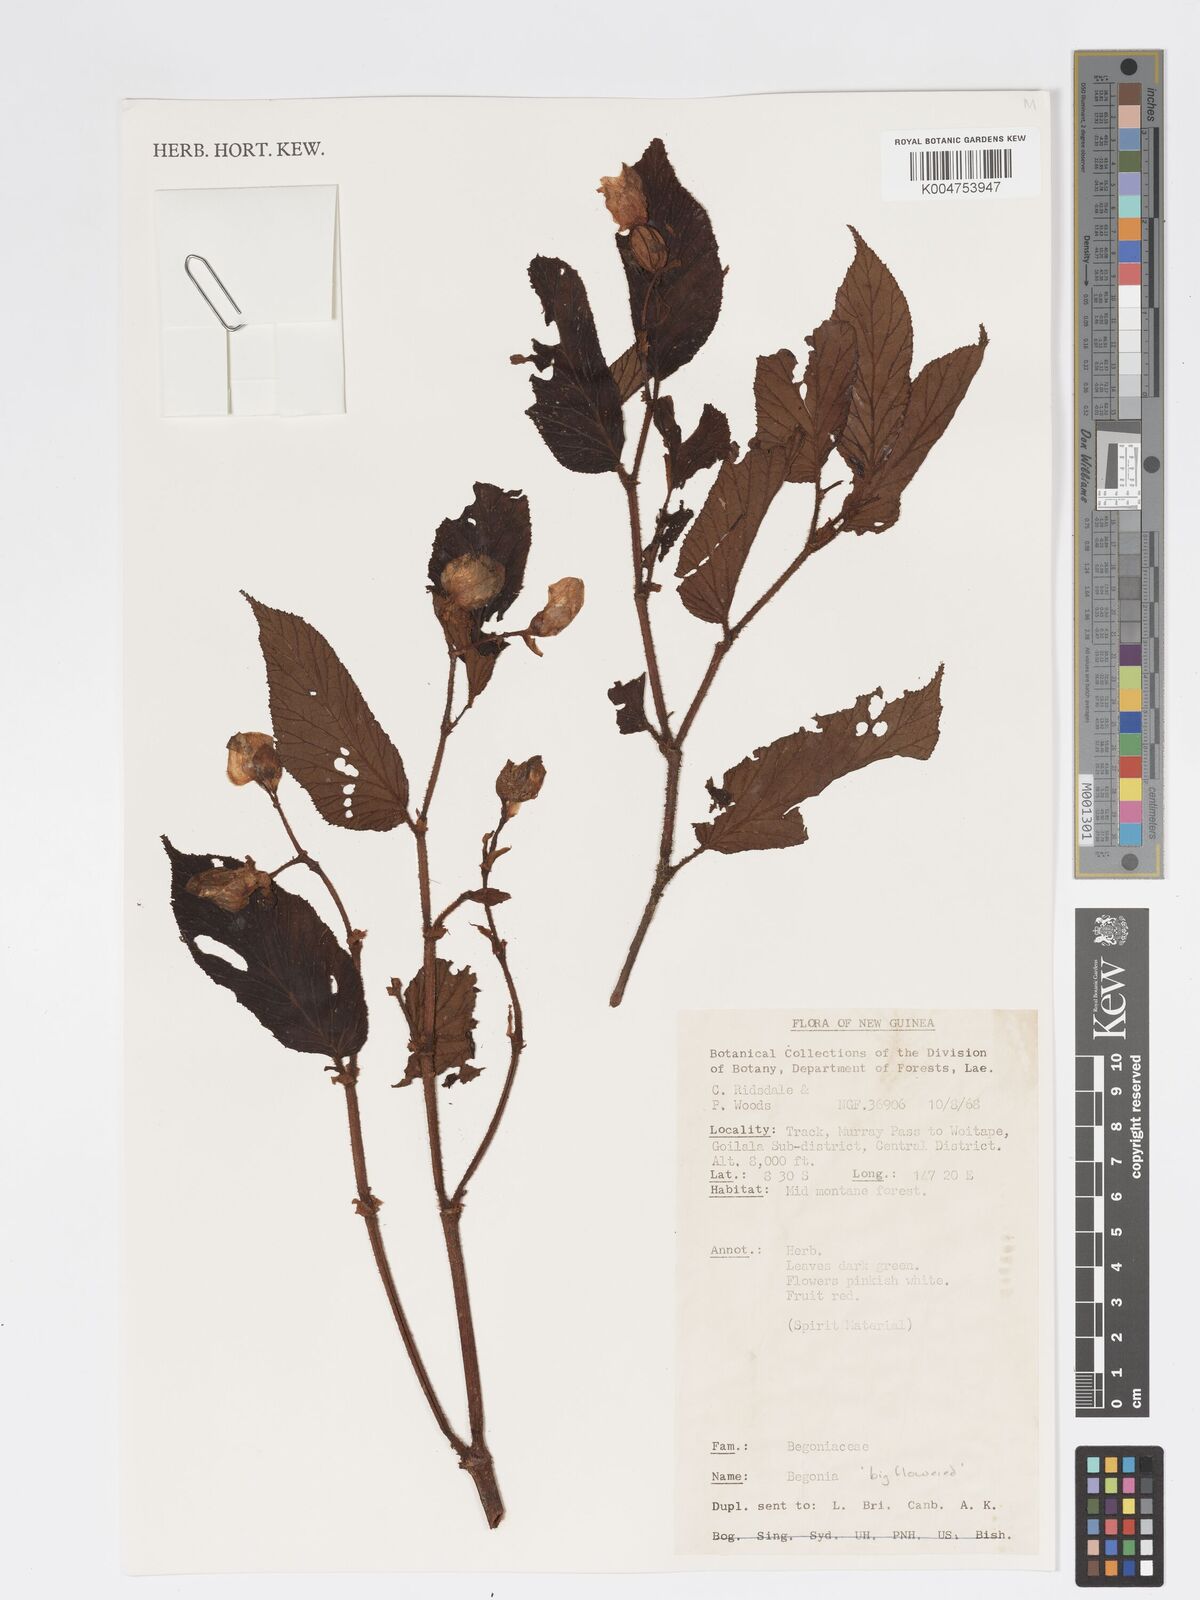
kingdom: Plantae
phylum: Tracheophyta
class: Magnoliopsida
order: Cucurbitales
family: Begoniaceae
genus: Begonia
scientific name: Begonia
